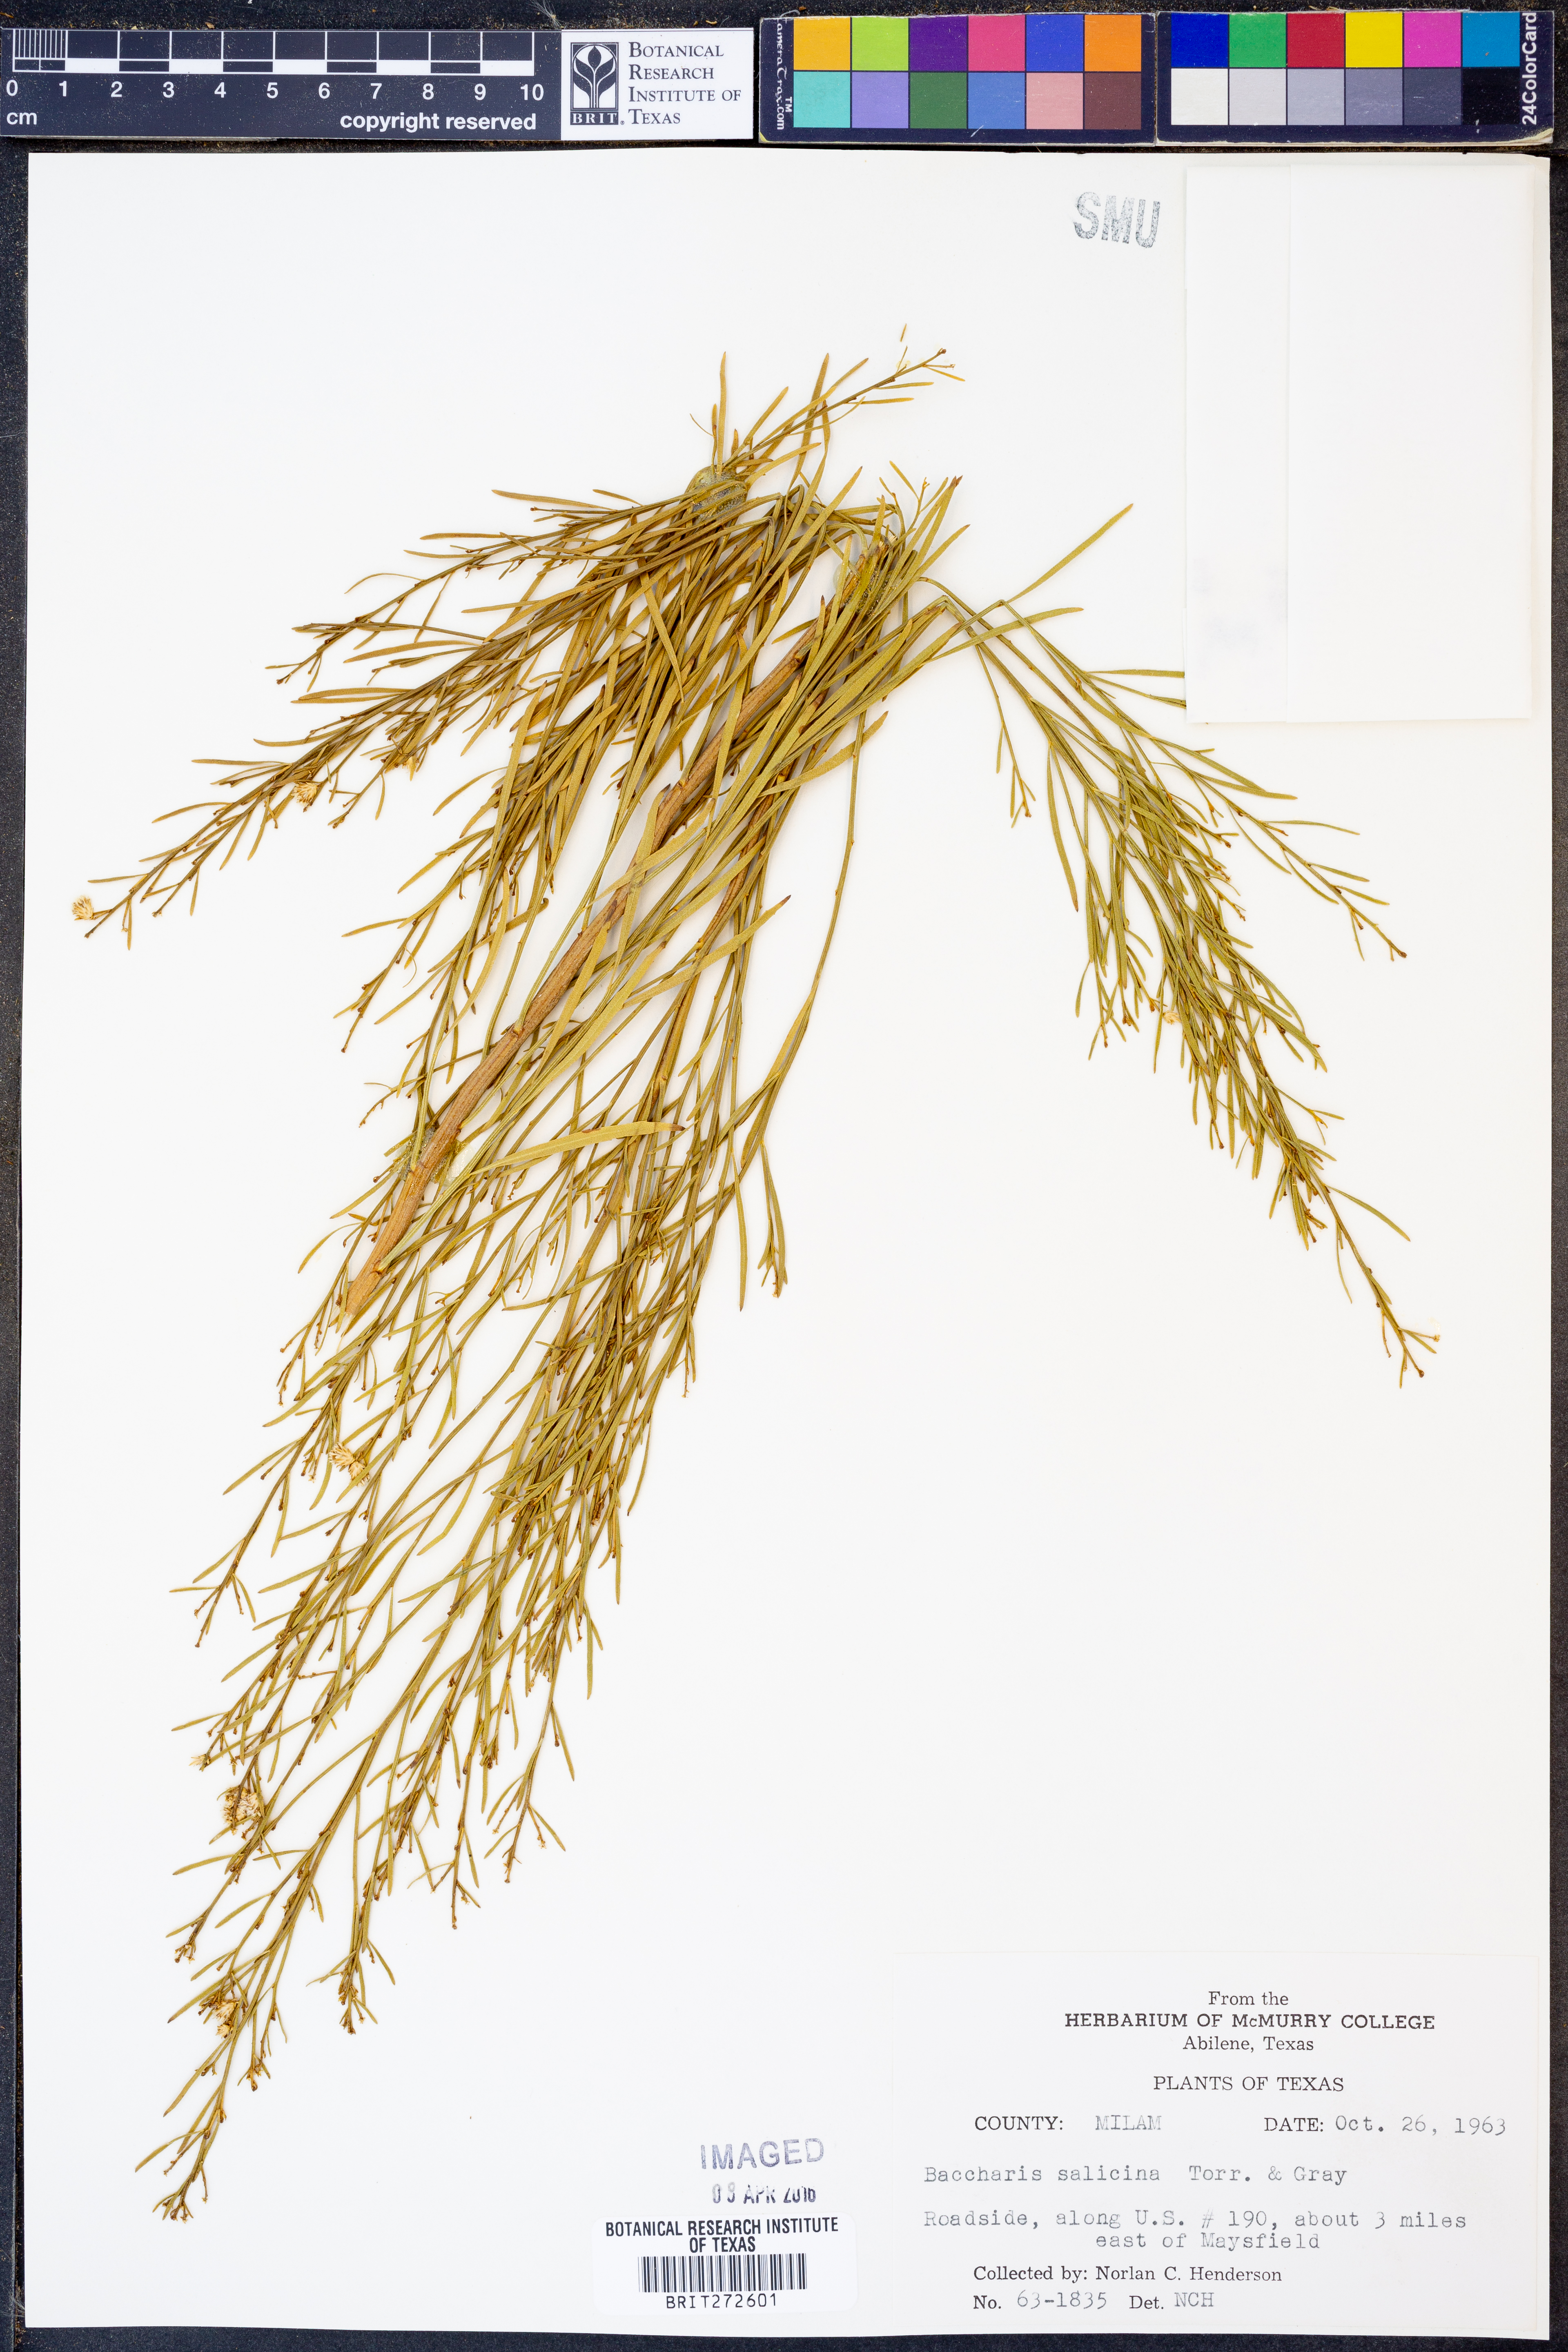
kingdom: Plantae
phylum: Tracheophyta
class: Magnoliopsida
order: Asterales
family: Asteraceae
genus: Baccharis
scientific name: Baccharis salicina
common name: Willow baccharis
